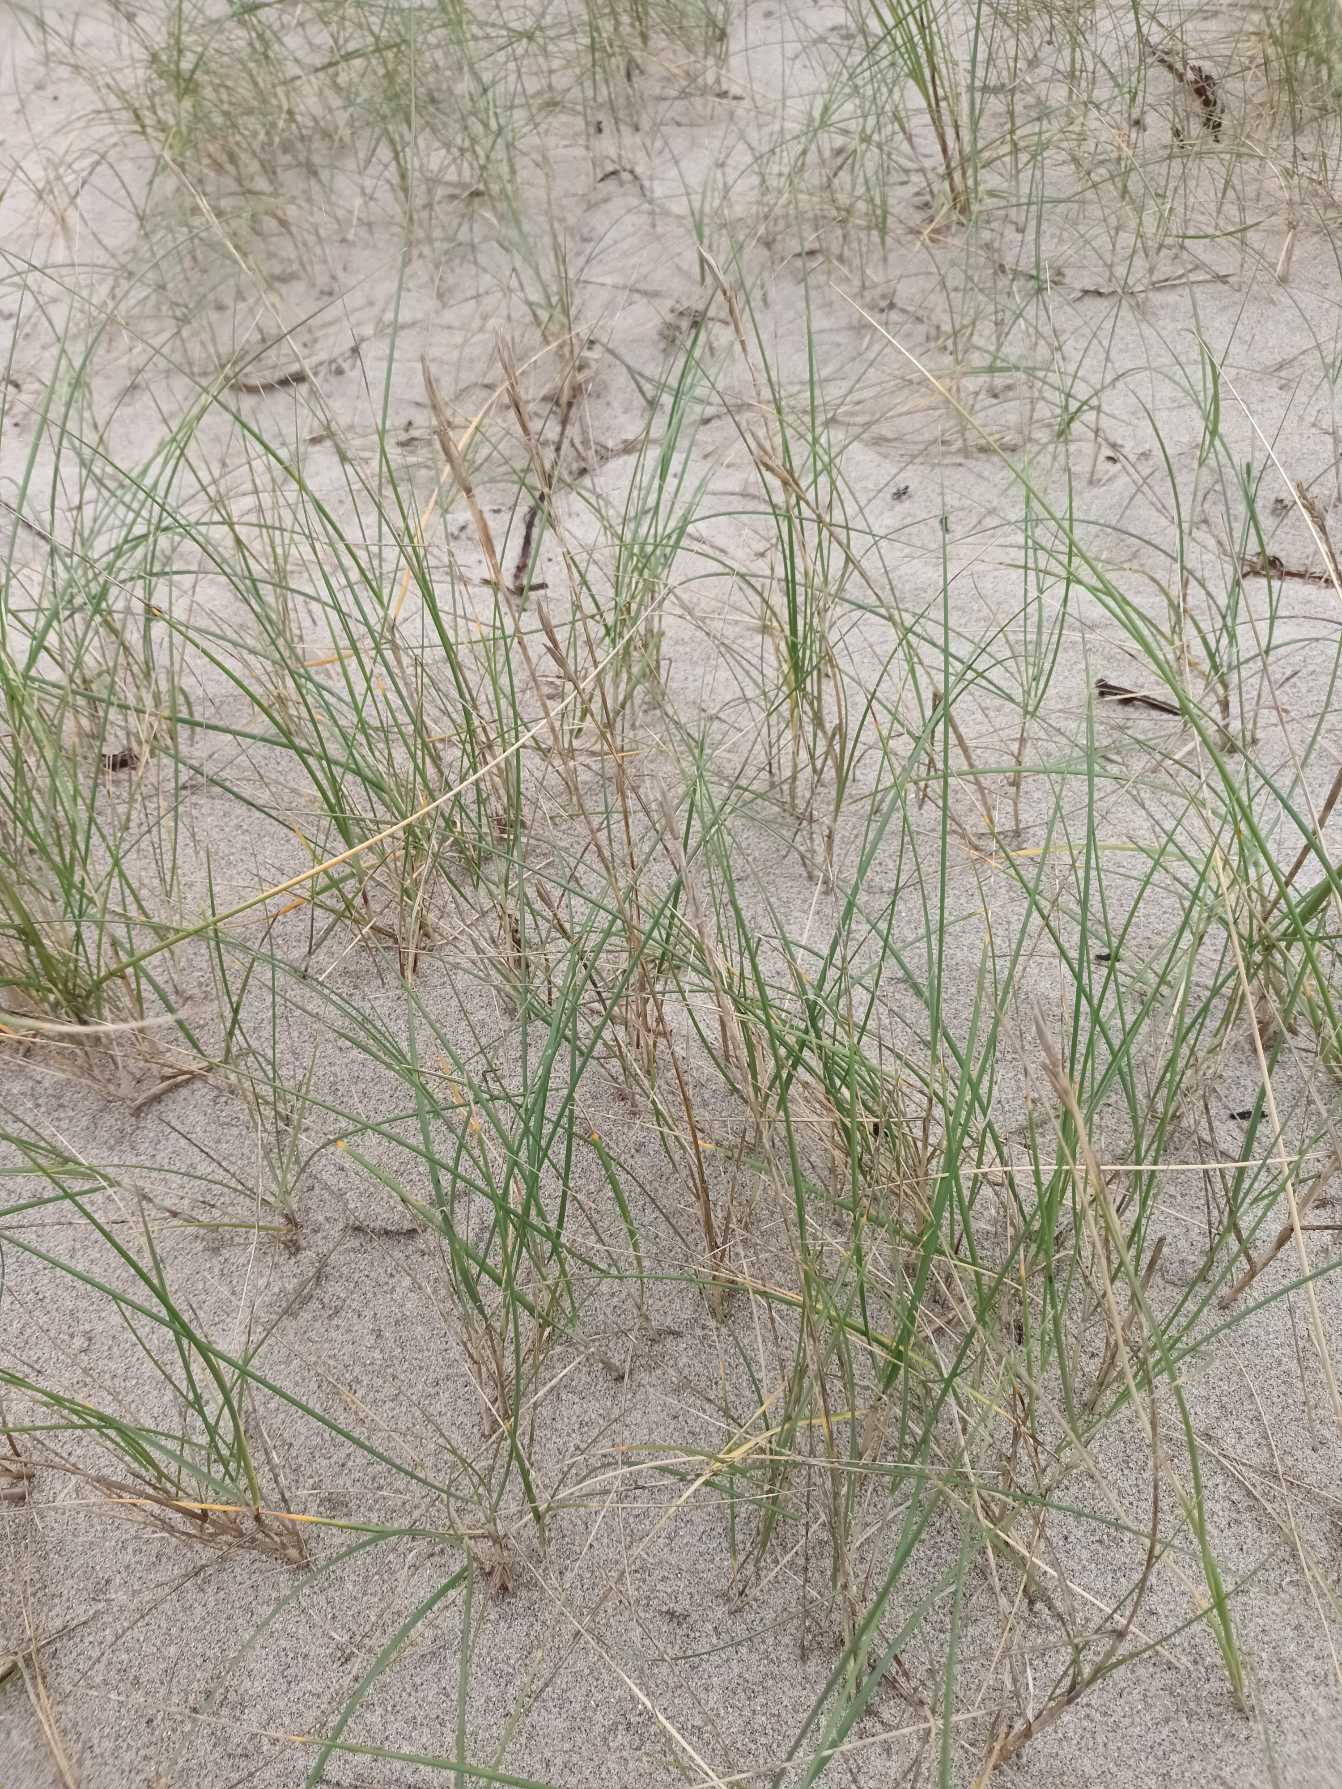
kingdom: Plantae
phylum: Tracheophyta
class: Liliopsida
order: Poales
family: Poaceae
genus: Thinopyrum
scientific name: Thinopyrum junceum
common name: Strand-kvik
